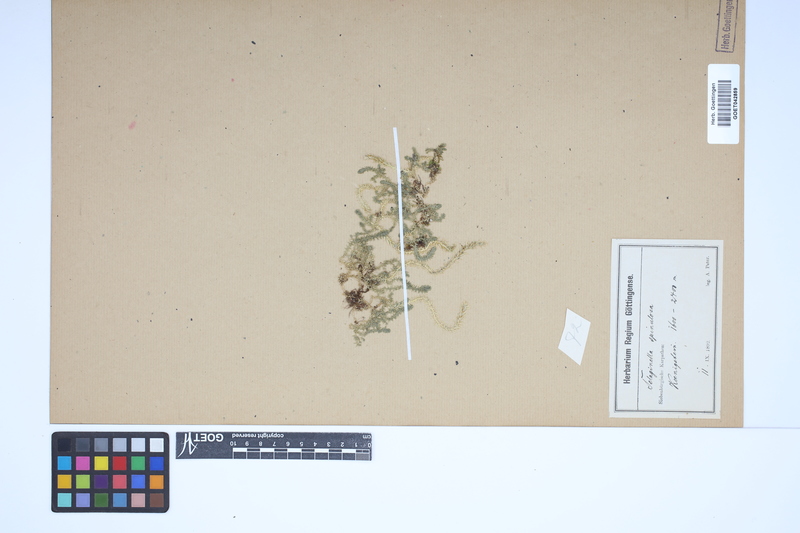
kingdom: Plantae
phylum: Tracheophyta
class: Lycopodiopsida
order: Selaginellales
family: Selaginellaceae
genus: Selaginella
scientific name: Selaginella selaginoides
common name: Prickly mountain-moss
